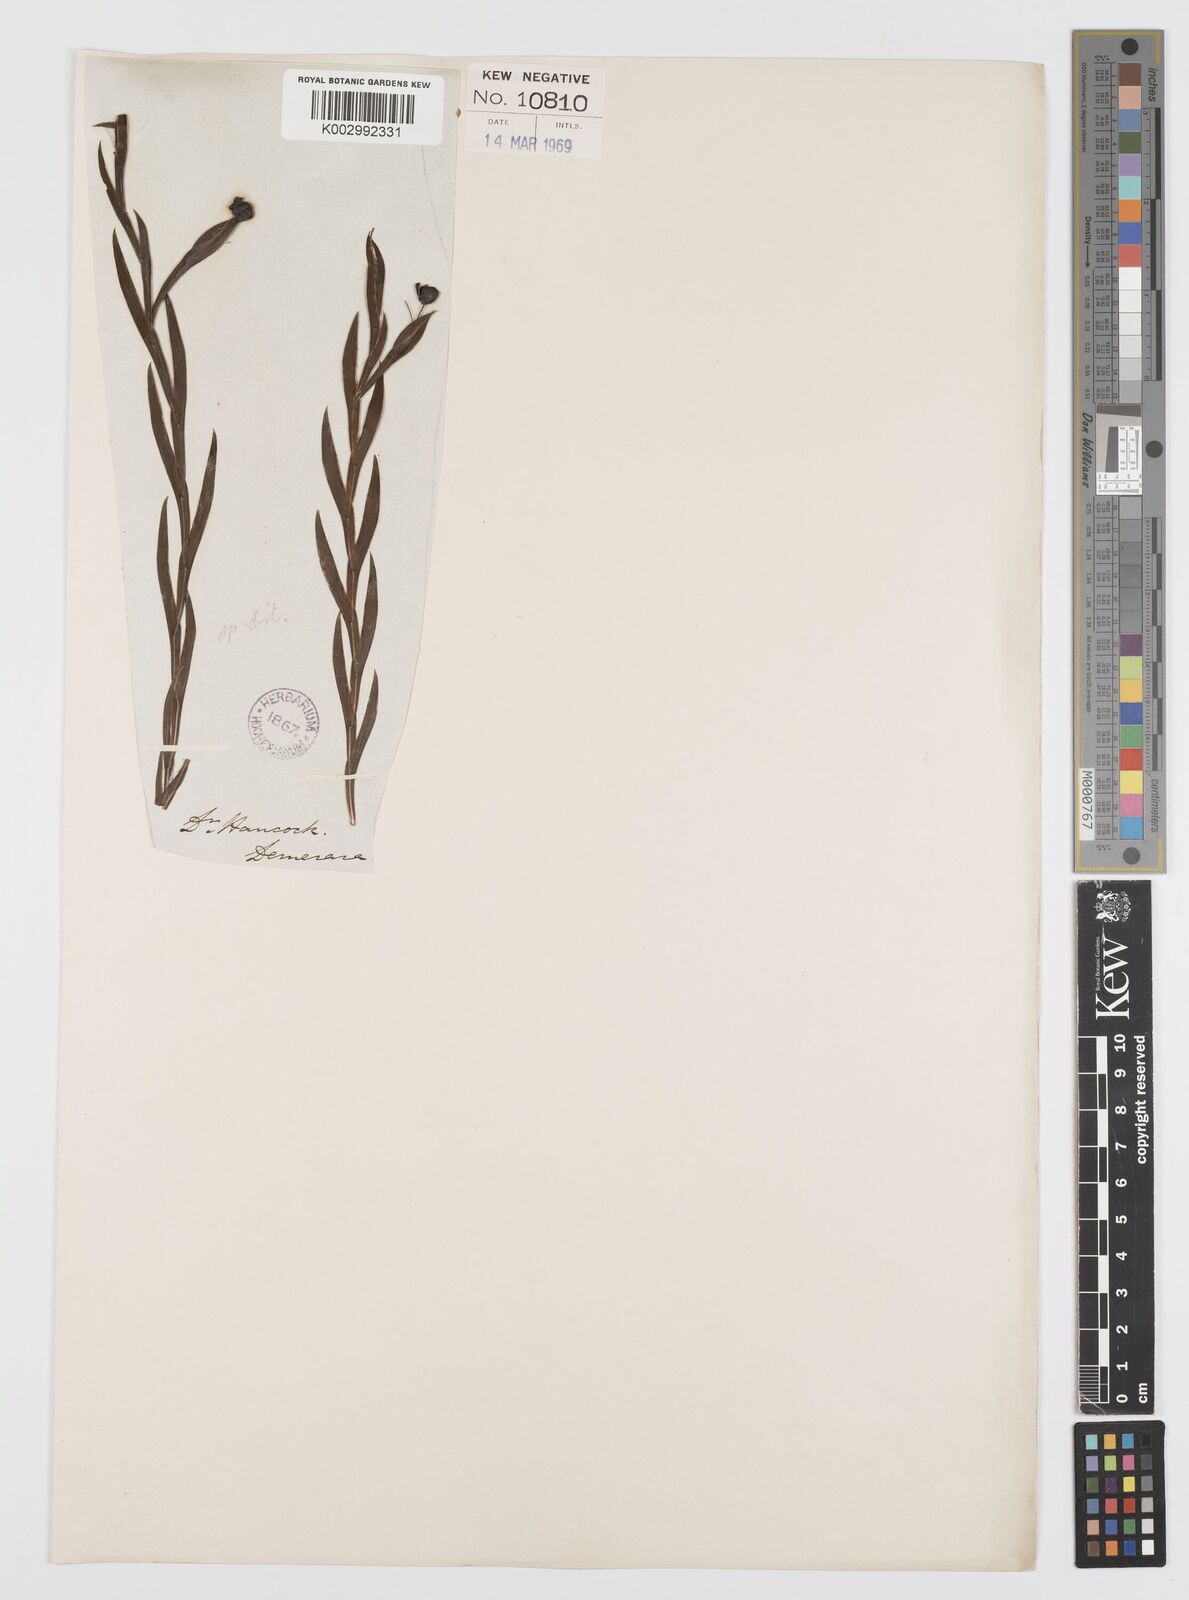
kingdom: Plantae
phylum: Tracheophyta
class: Liliopsida
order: Asparagales
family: Iridaceae
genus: Sisyrinchium
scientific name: Sisyrinchium vaginatum
